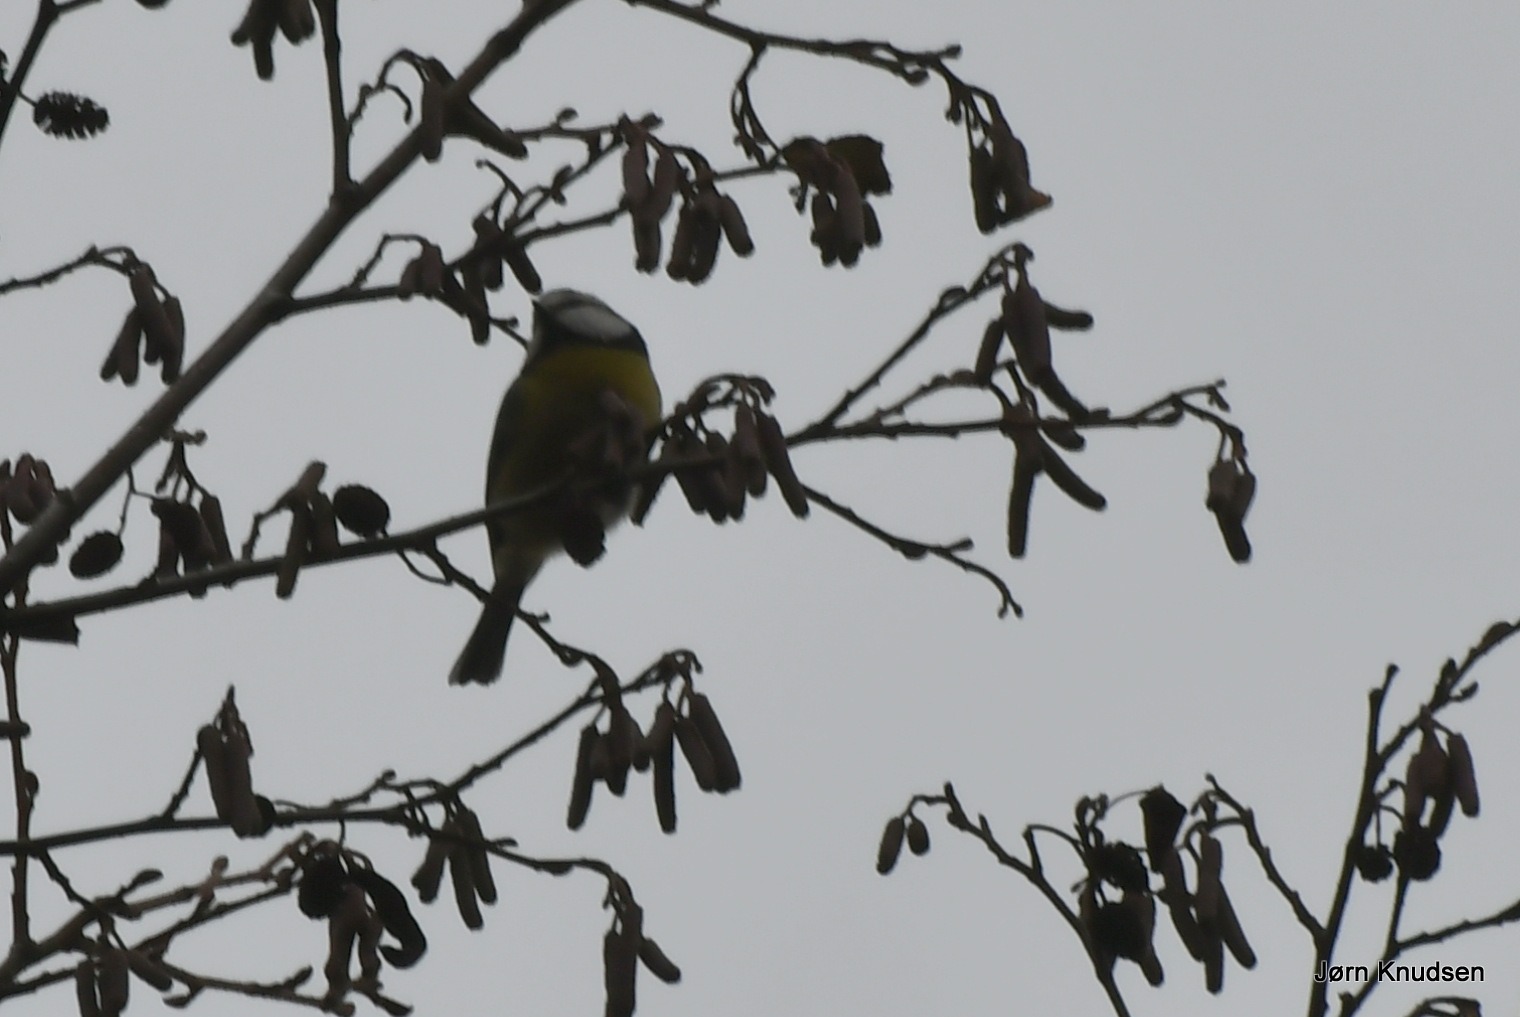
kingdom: Animalia
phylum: Chordata
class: Aves
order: Passeriformes
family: Paridae
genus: Cyanistes
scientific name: Cyanistes caeruleus
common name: Blåmejse
